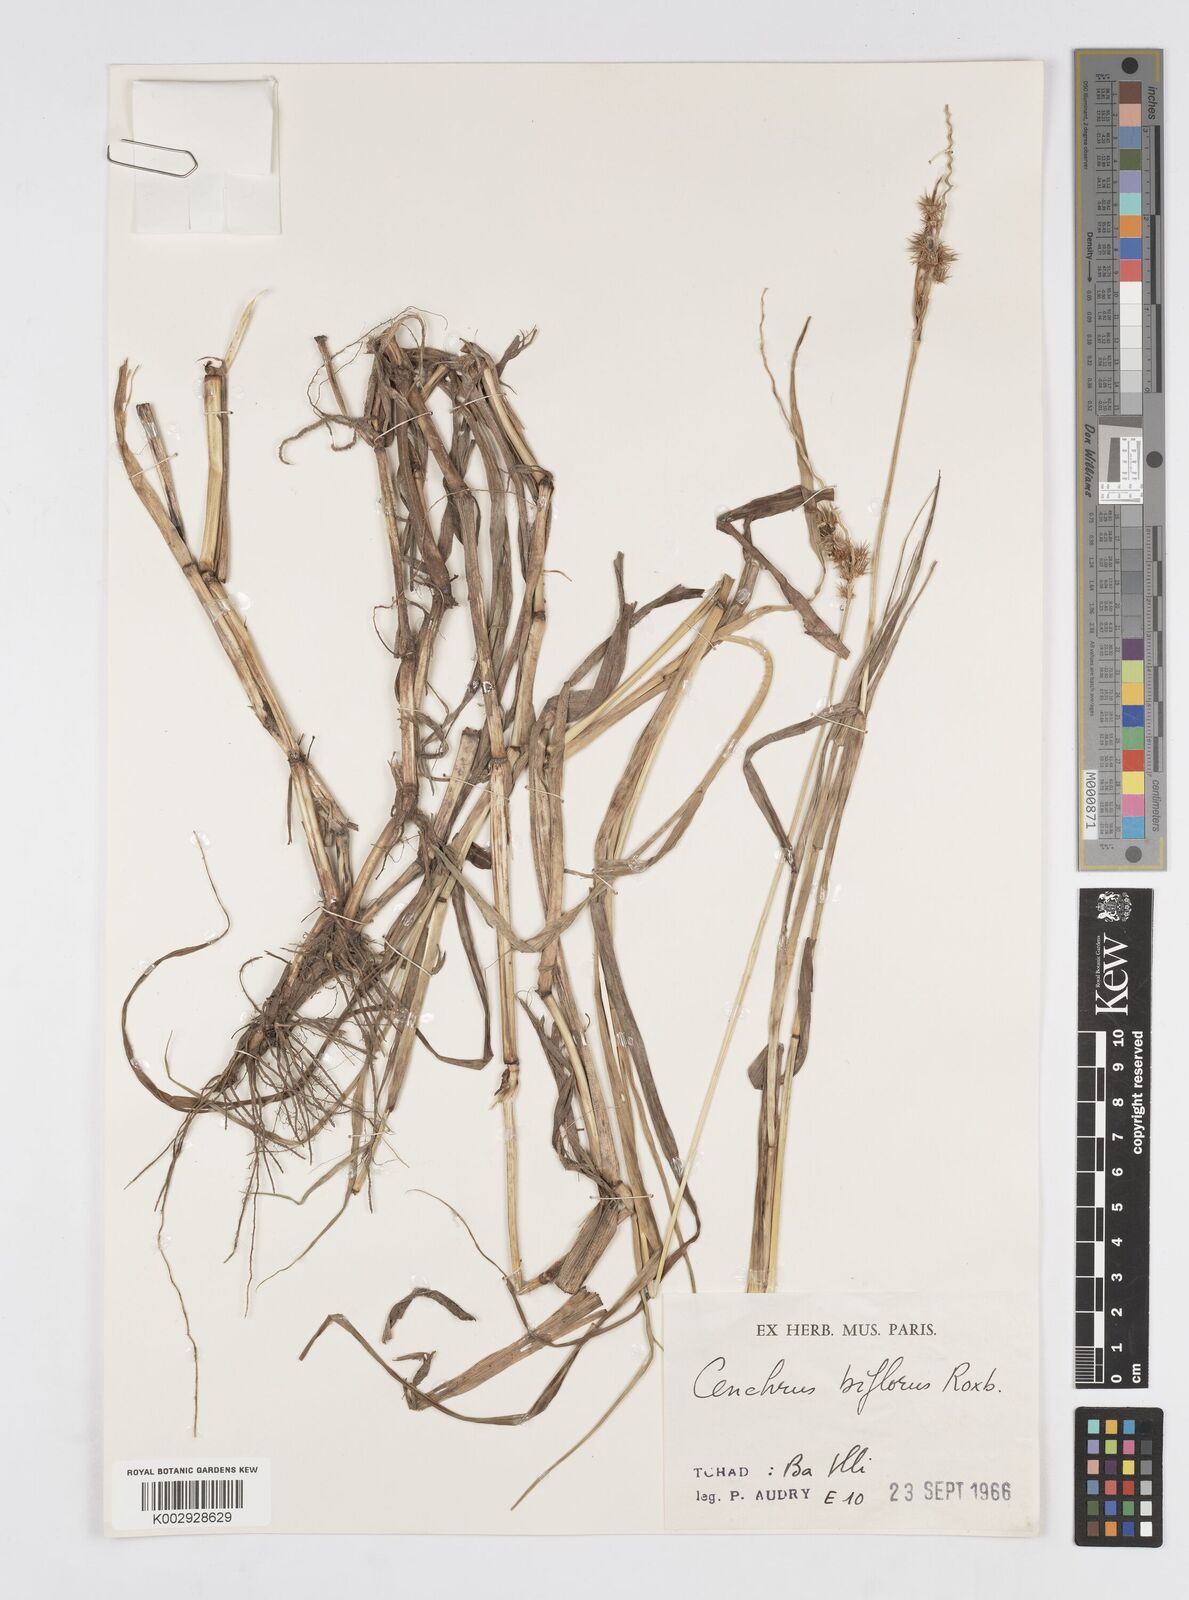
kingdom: Plantae
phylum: Tracheophyta
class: Liliopsida
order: Poales
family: Poaceae
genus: Cenchrus
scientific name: Cenchrus biflorus
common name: Indian sandbur
